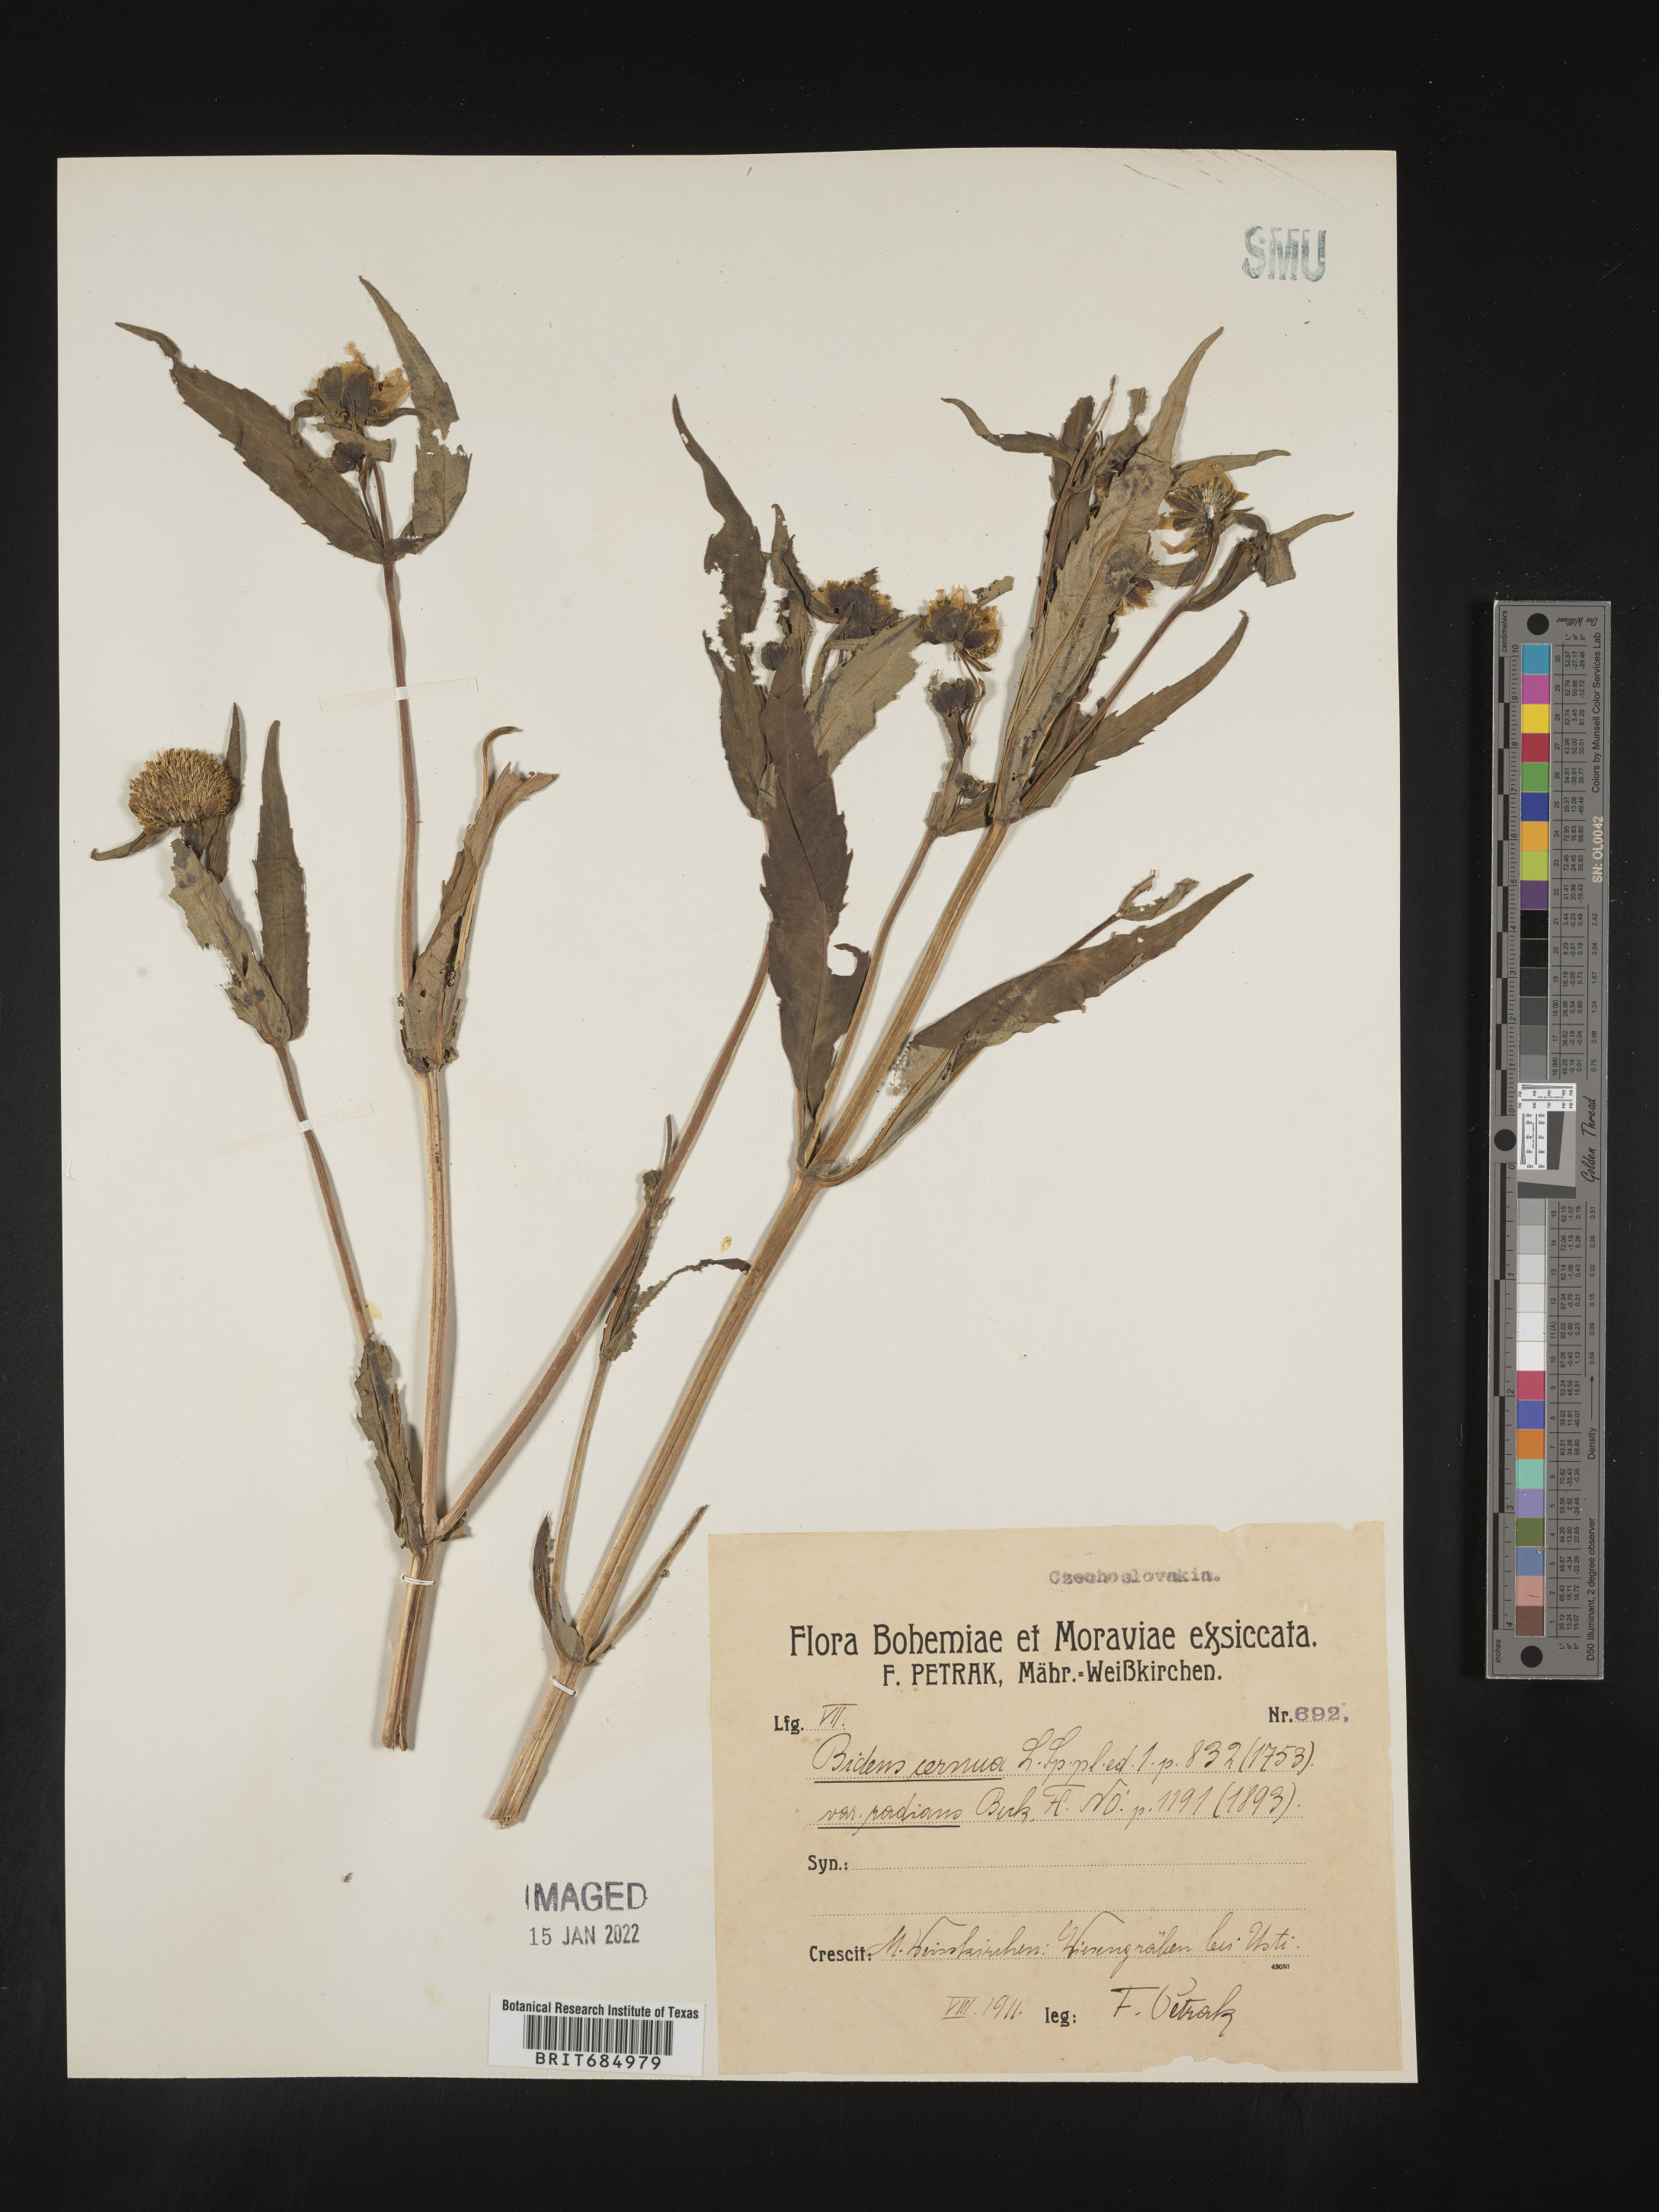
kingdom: Plantae
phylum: Tracheophyta
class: Magnoliopsida
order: Asterales
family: Asteraceae
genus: Bidens
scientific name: Bidens
